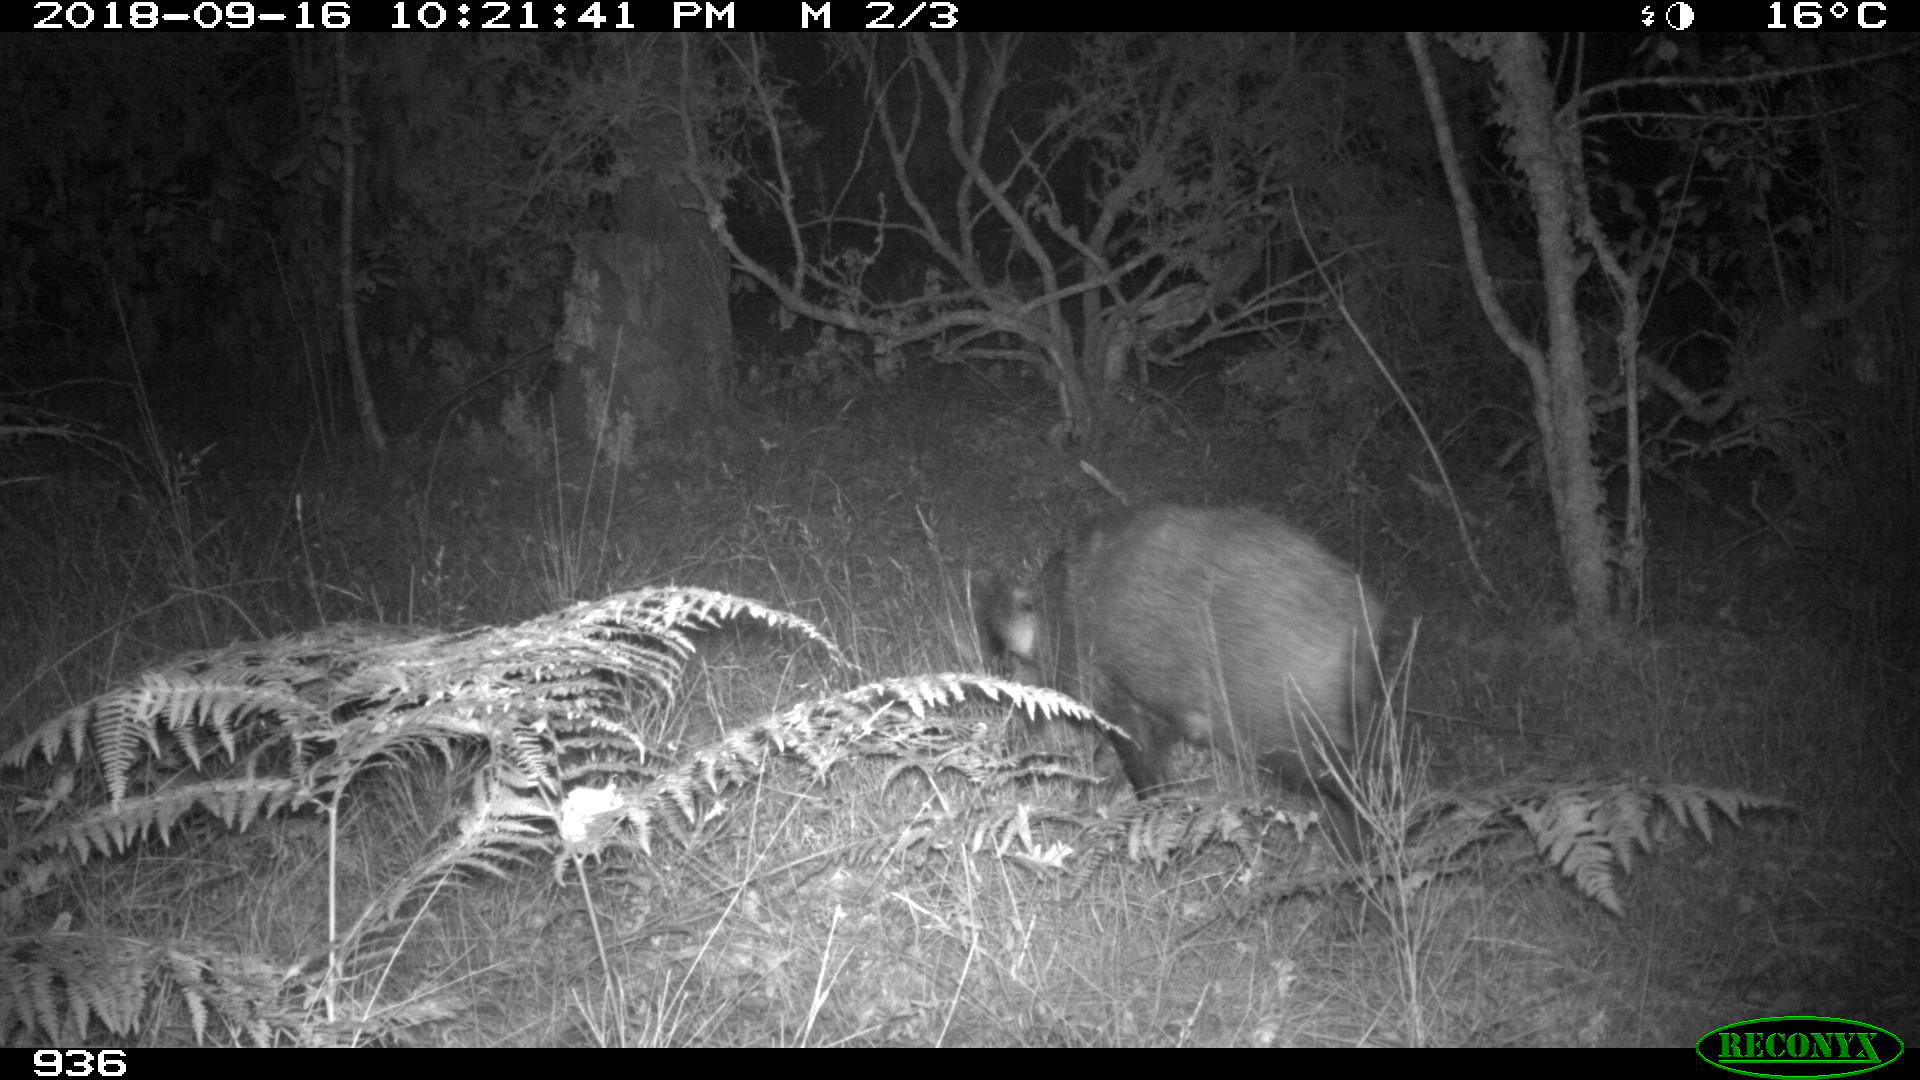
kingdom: Animalia
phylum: Chordata
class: Mammalia
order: Artiodactyla
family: Suidae
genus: Sus
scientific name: Sus scrofa
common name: Wild boar
